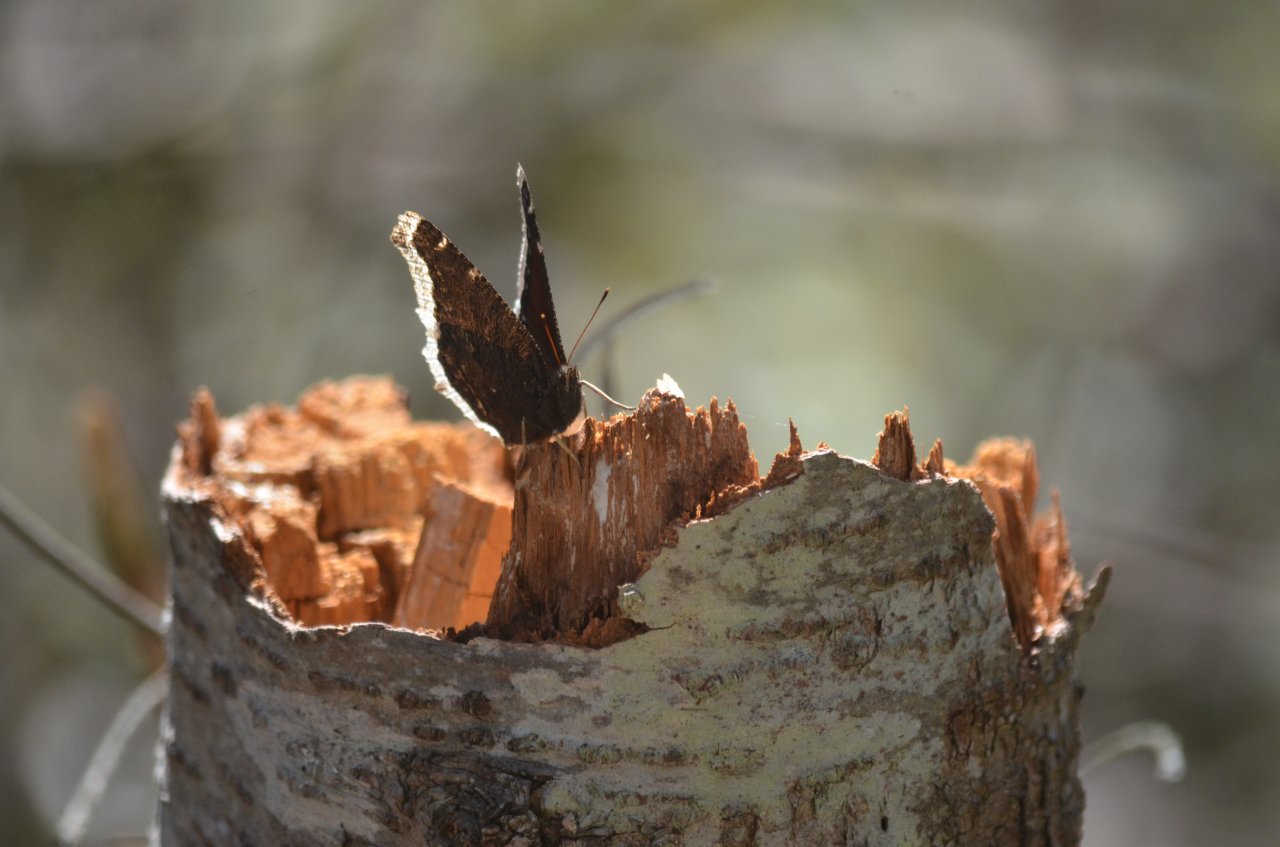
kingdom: Animalia
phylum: Arthropoda
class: Insecta
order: Lepidoptera
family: Nymphalidae
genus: Nymphalis
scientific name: Nymphalis antiopa
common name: Mourning Cloak
